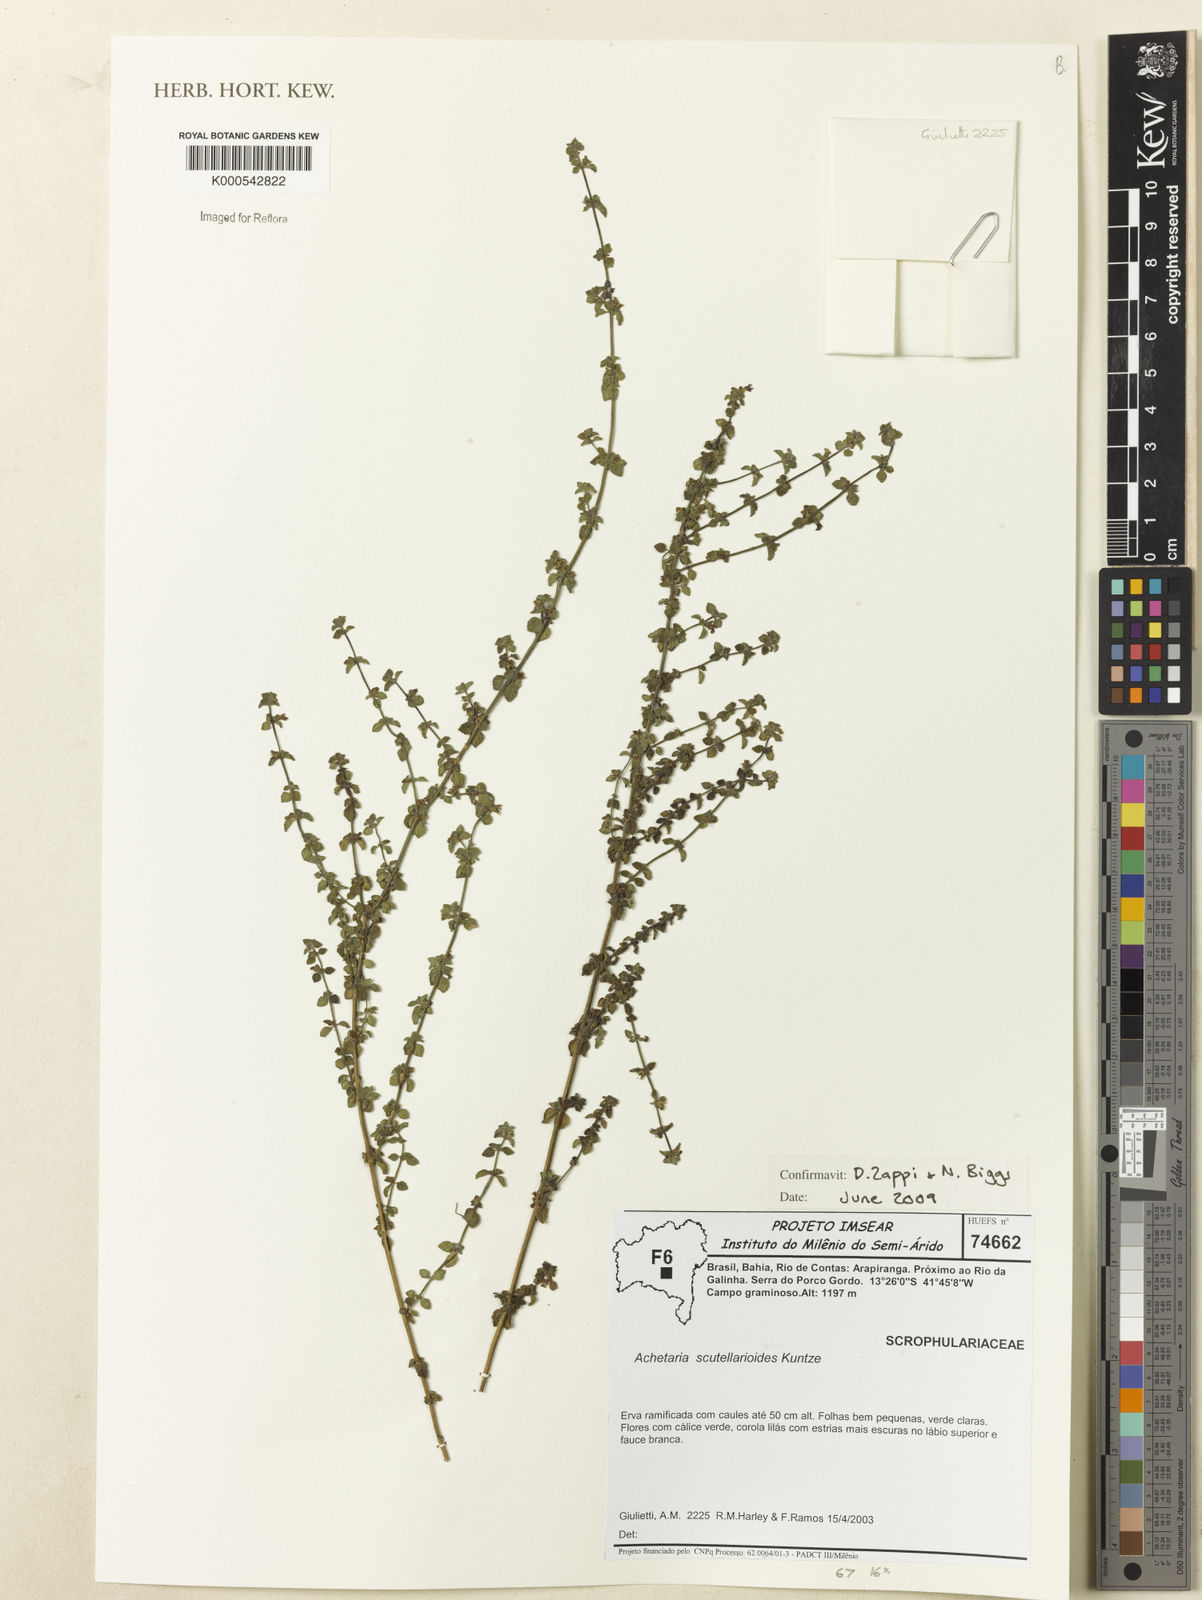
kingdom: Plantae
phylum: Tracheophyta
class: Magnoliopsida
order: Lamiales
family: Plantaginaceae
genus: Matourea
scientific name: Matourea
